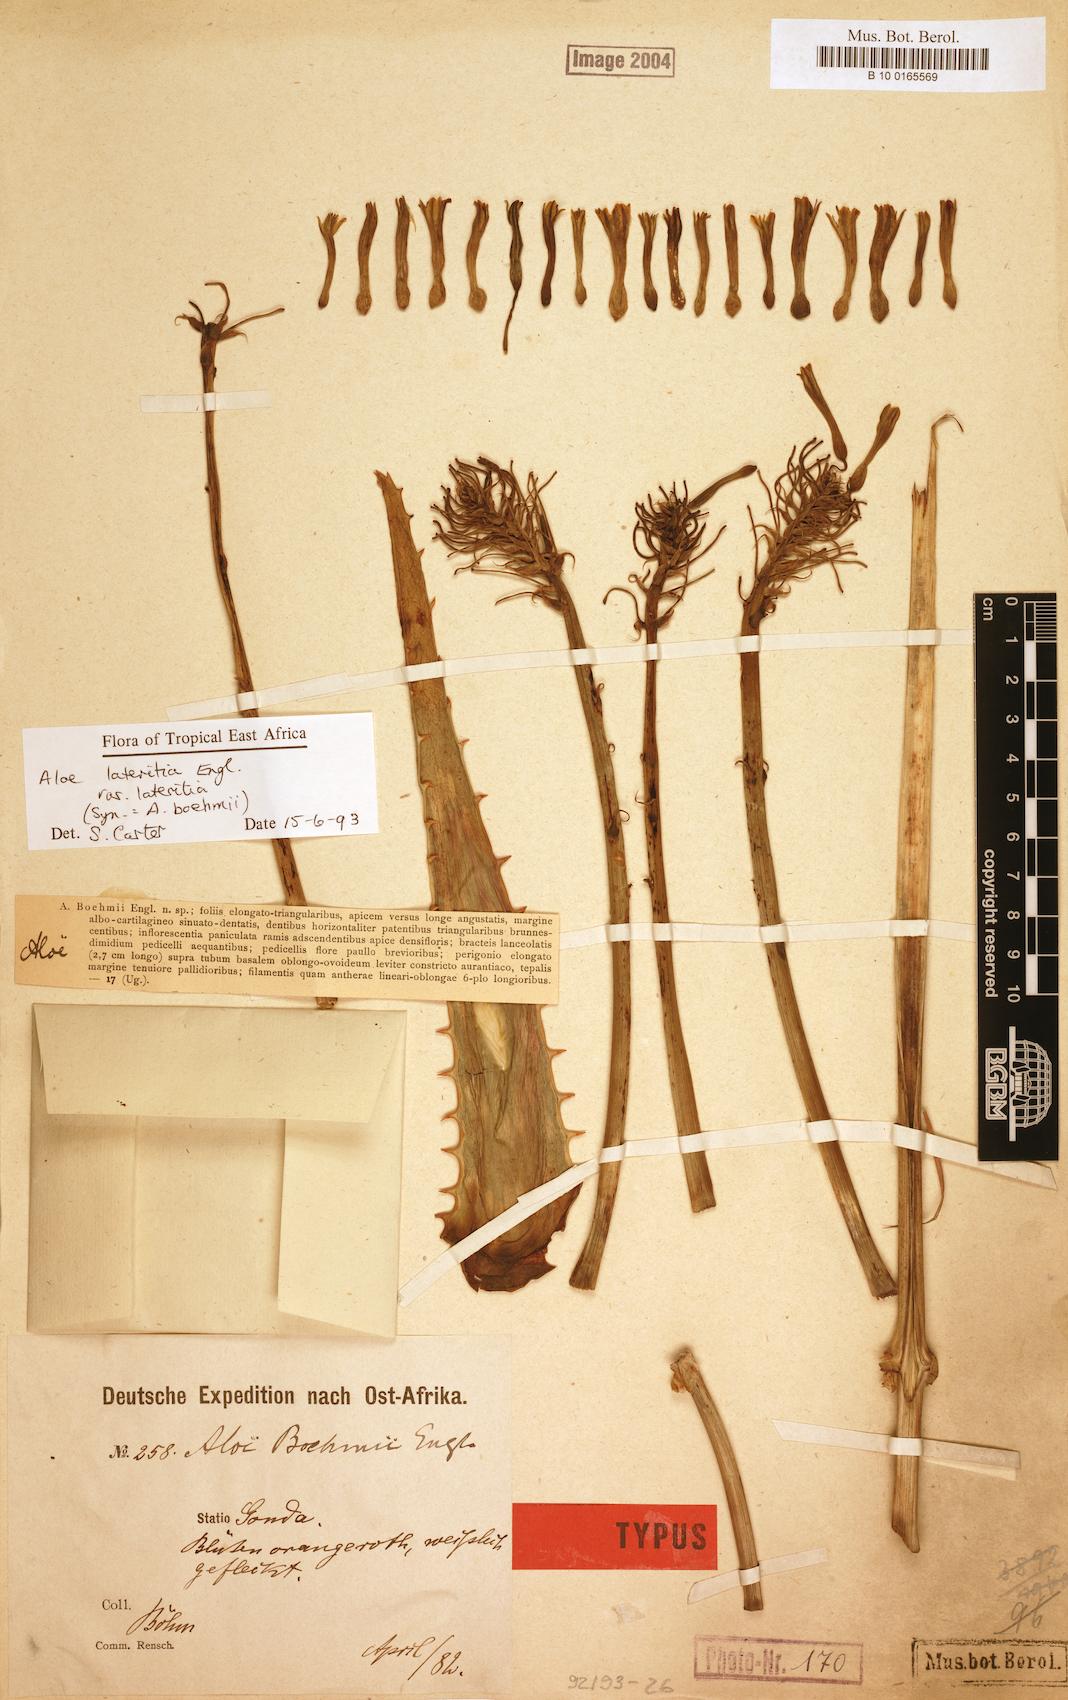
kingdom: Plantae
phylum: Tracheophyta
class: Liliopsida
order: Asparagales
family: Asphodelaceae
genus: Aloe
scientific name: Aloe lateritia
